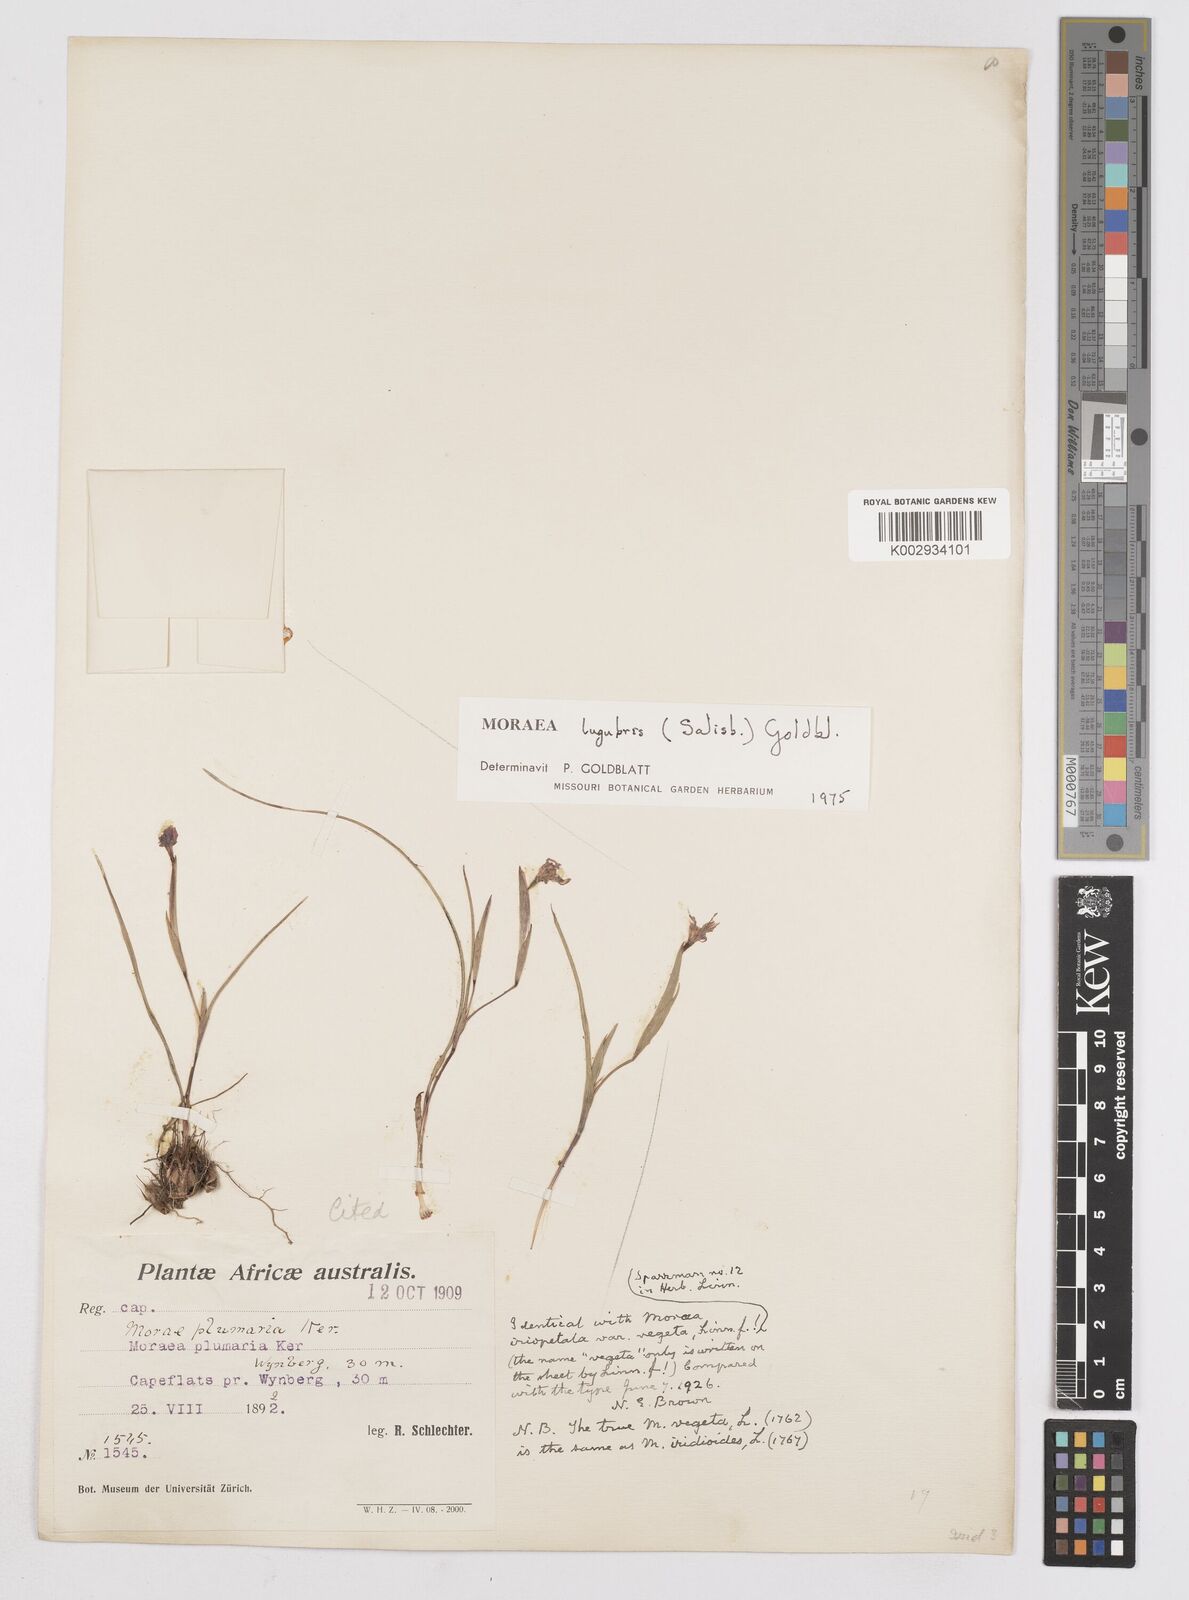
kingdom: Plantae
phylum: Tracheophyta
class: Liliopsida
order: Asparagales
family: Iridaceae
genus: Moraea
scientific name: Moraea lugubris
